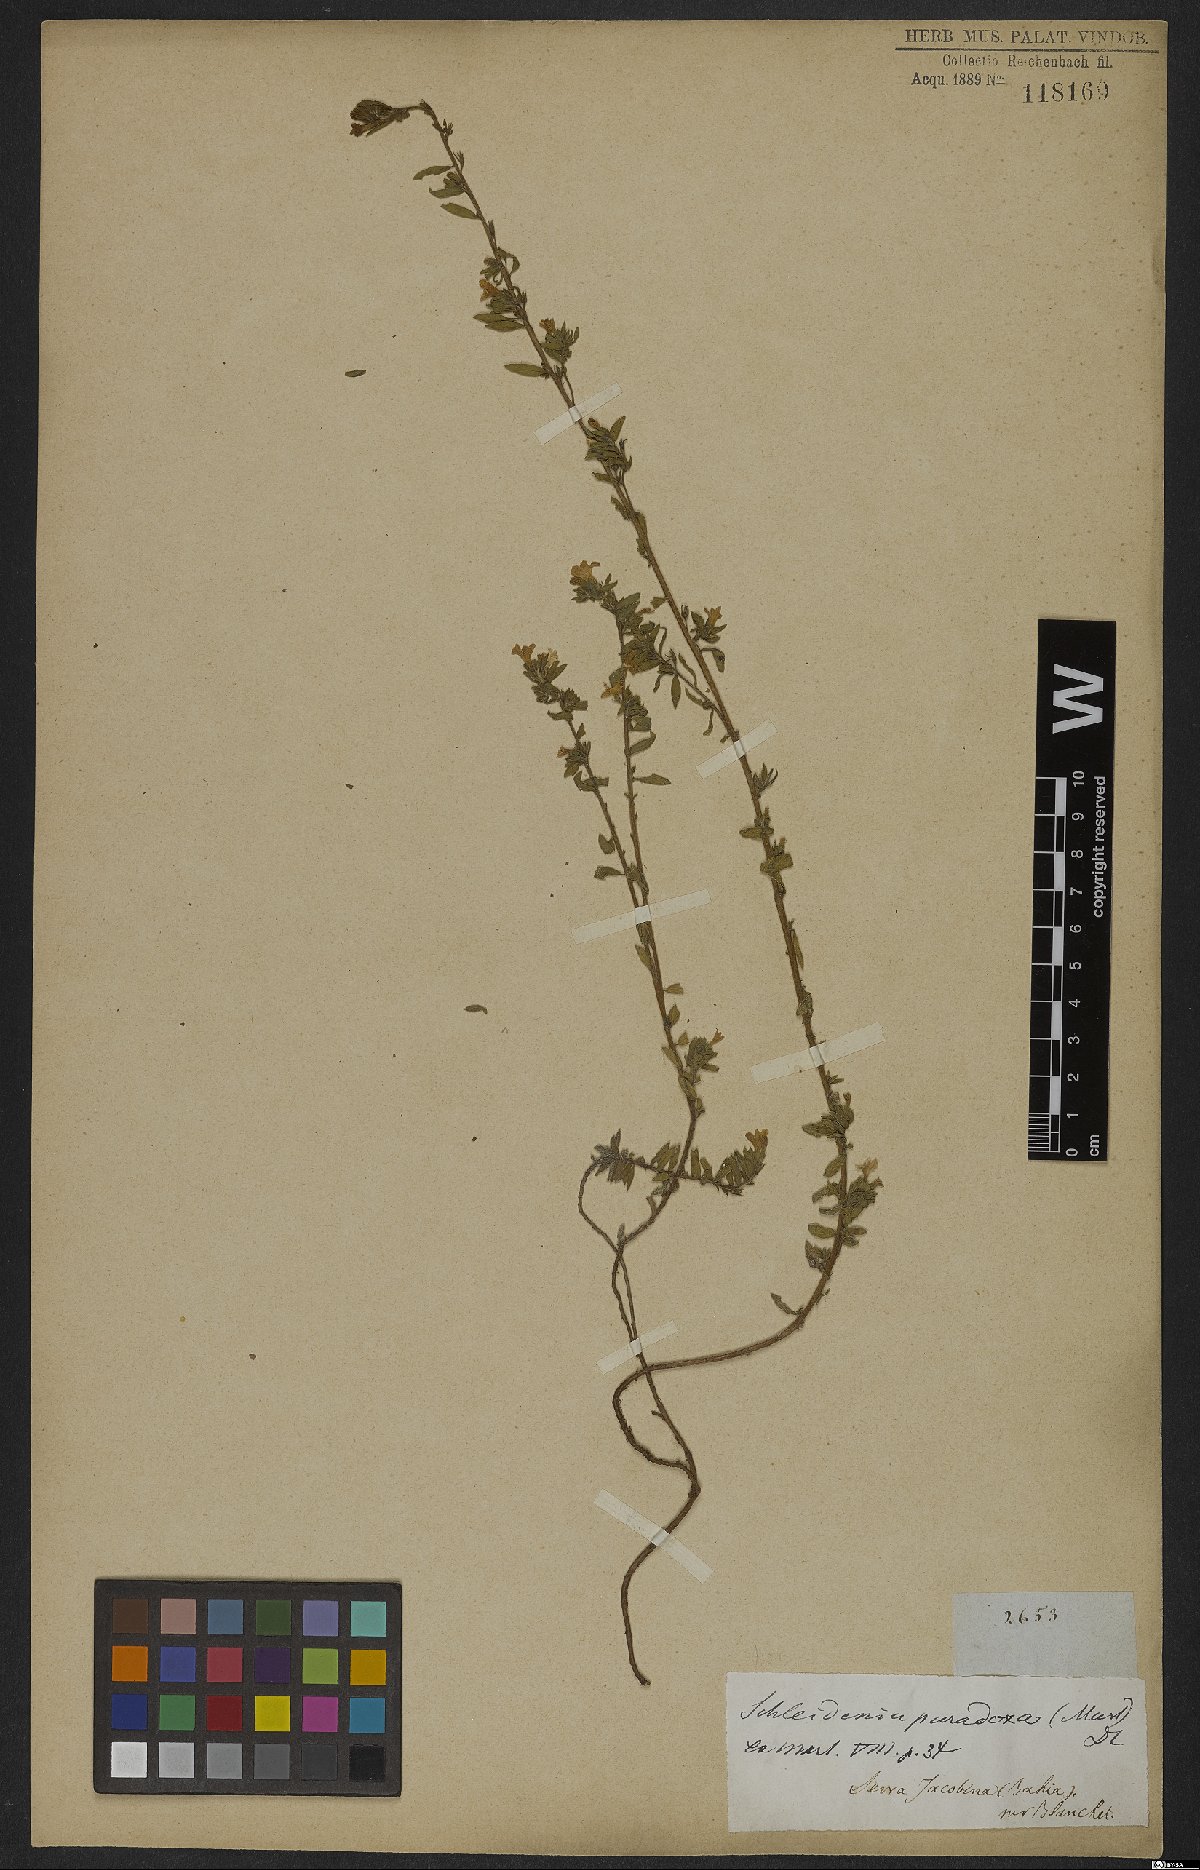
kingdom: Plantae
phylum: Tracheophyta
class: Magnoliopsida
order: Boraginales
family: Heliotropiaceae
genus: Heliotropium
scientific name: Heliotropium macrodon
